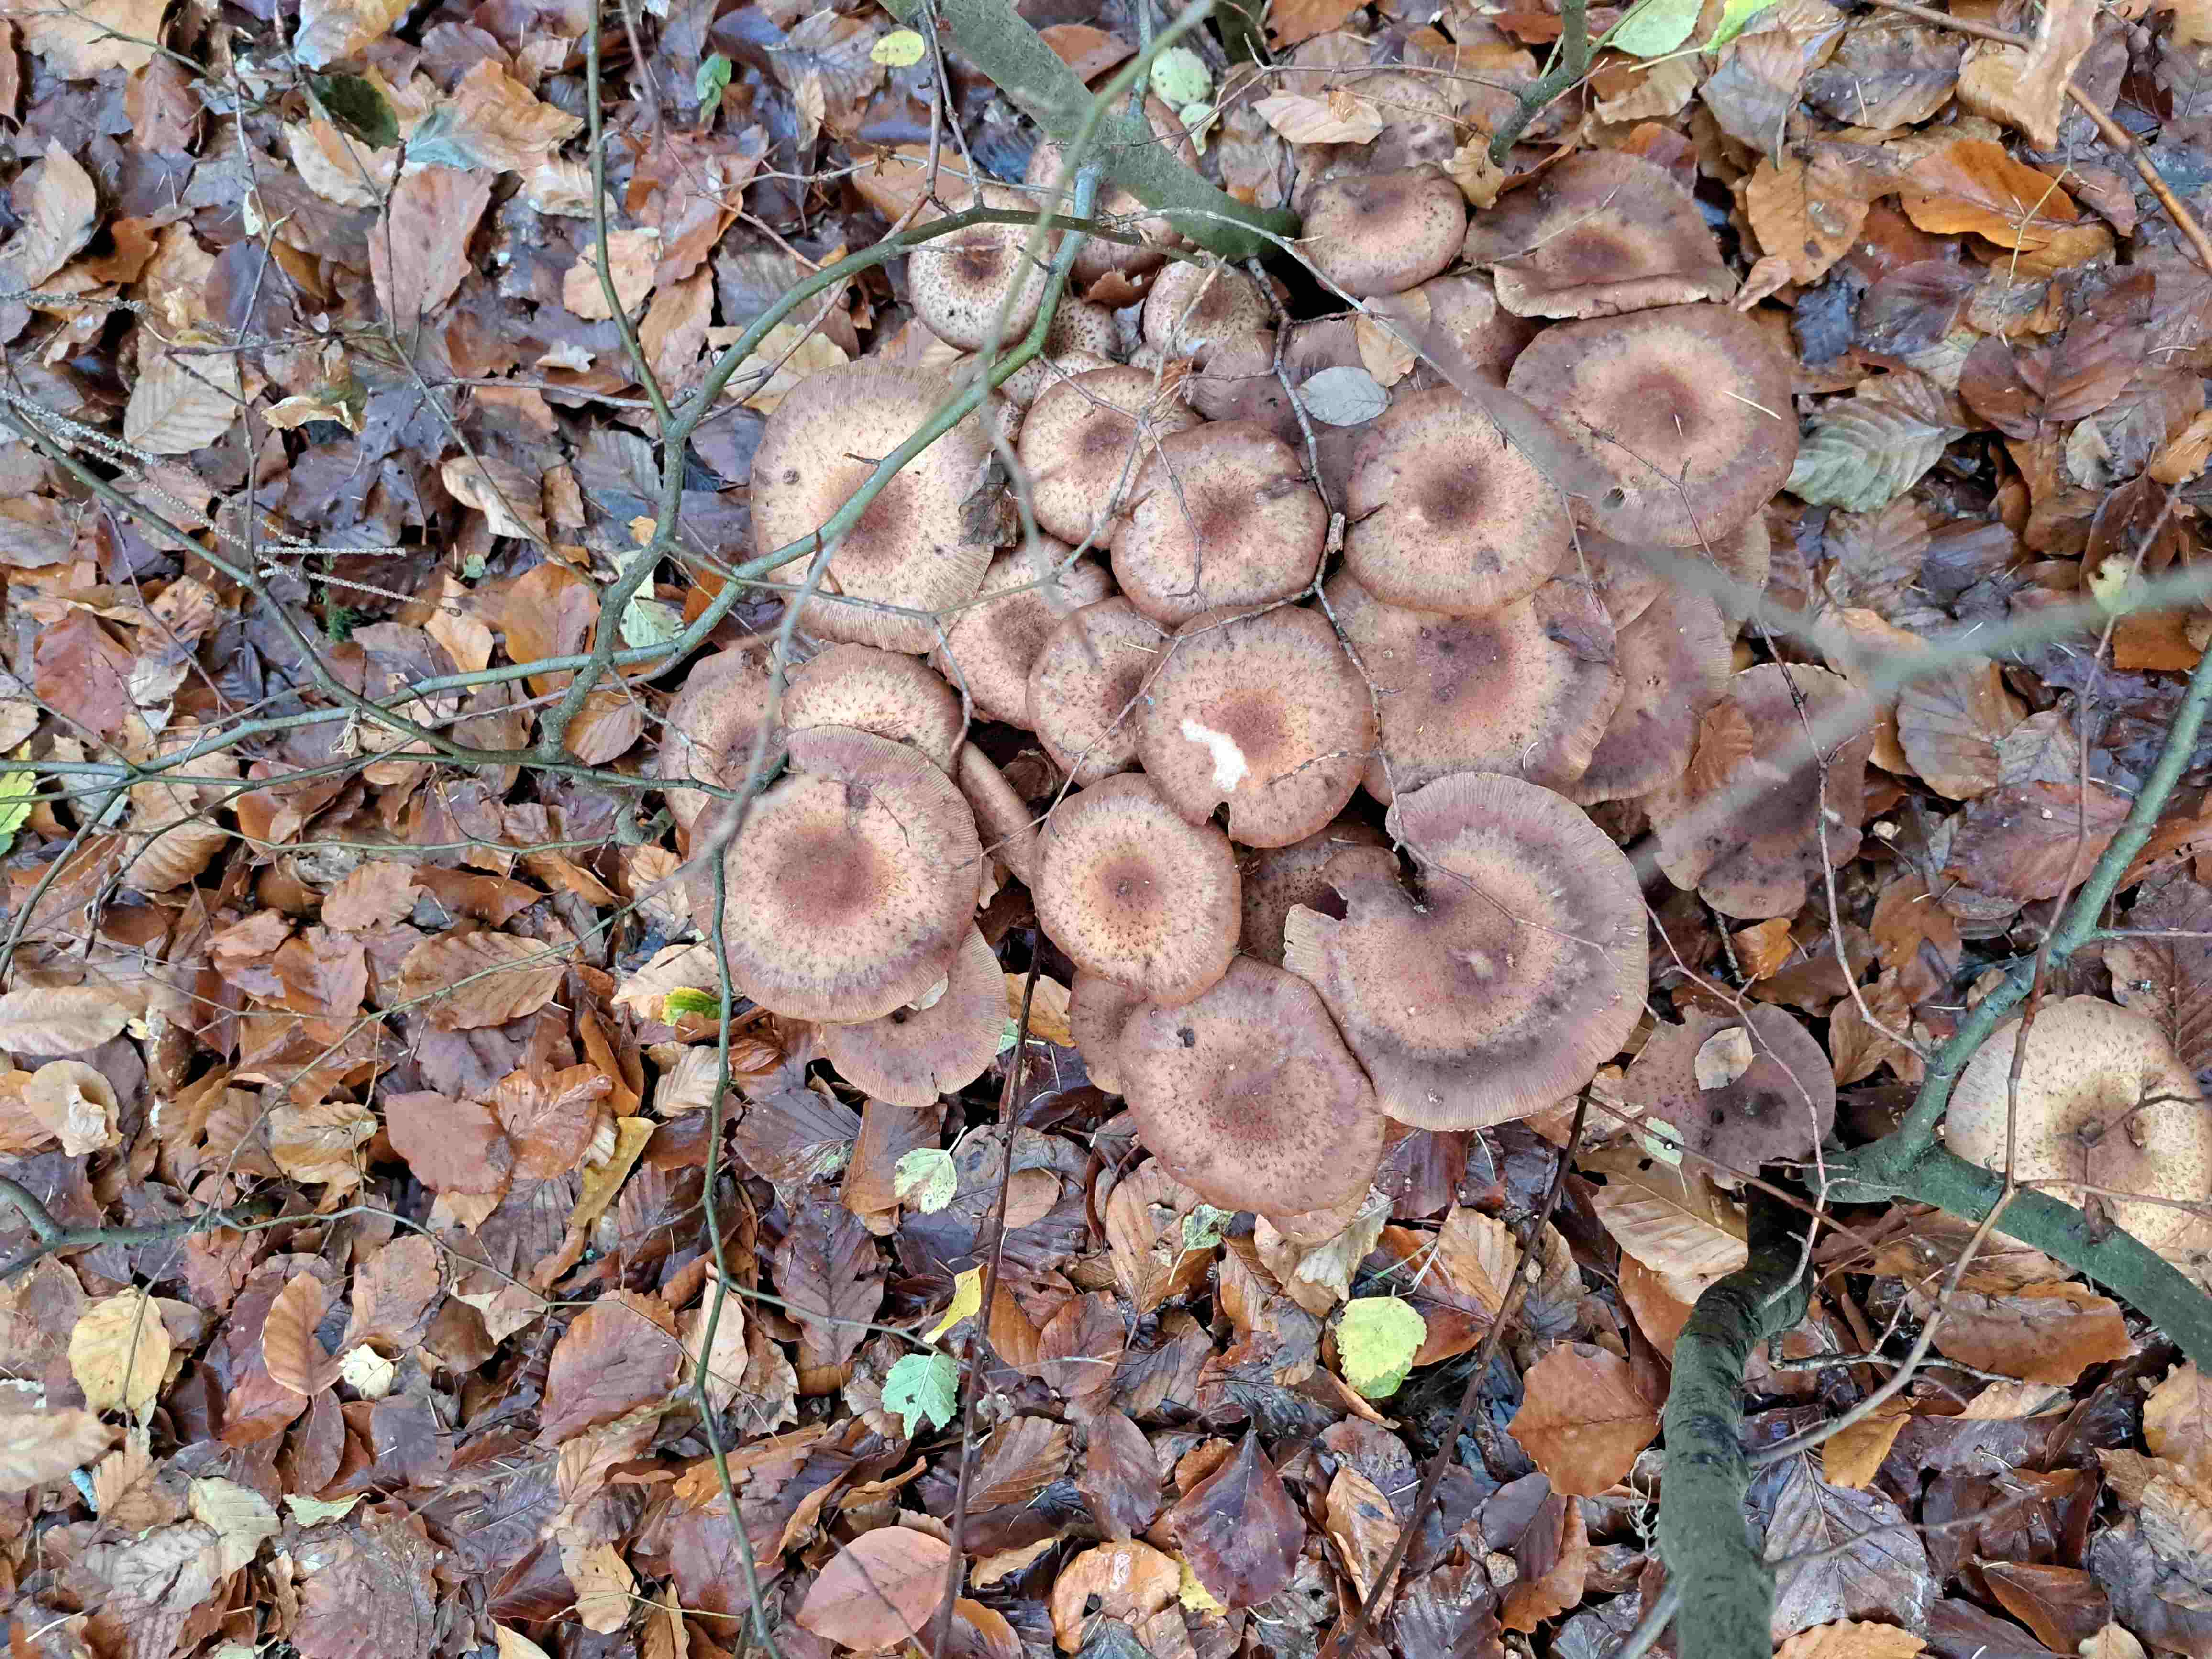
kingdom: Fungi
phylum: Basidiomycota
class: Agaricomycetes
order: Agaricales
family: Physalacriaceae
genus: Armillaria
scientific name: Armillaria
